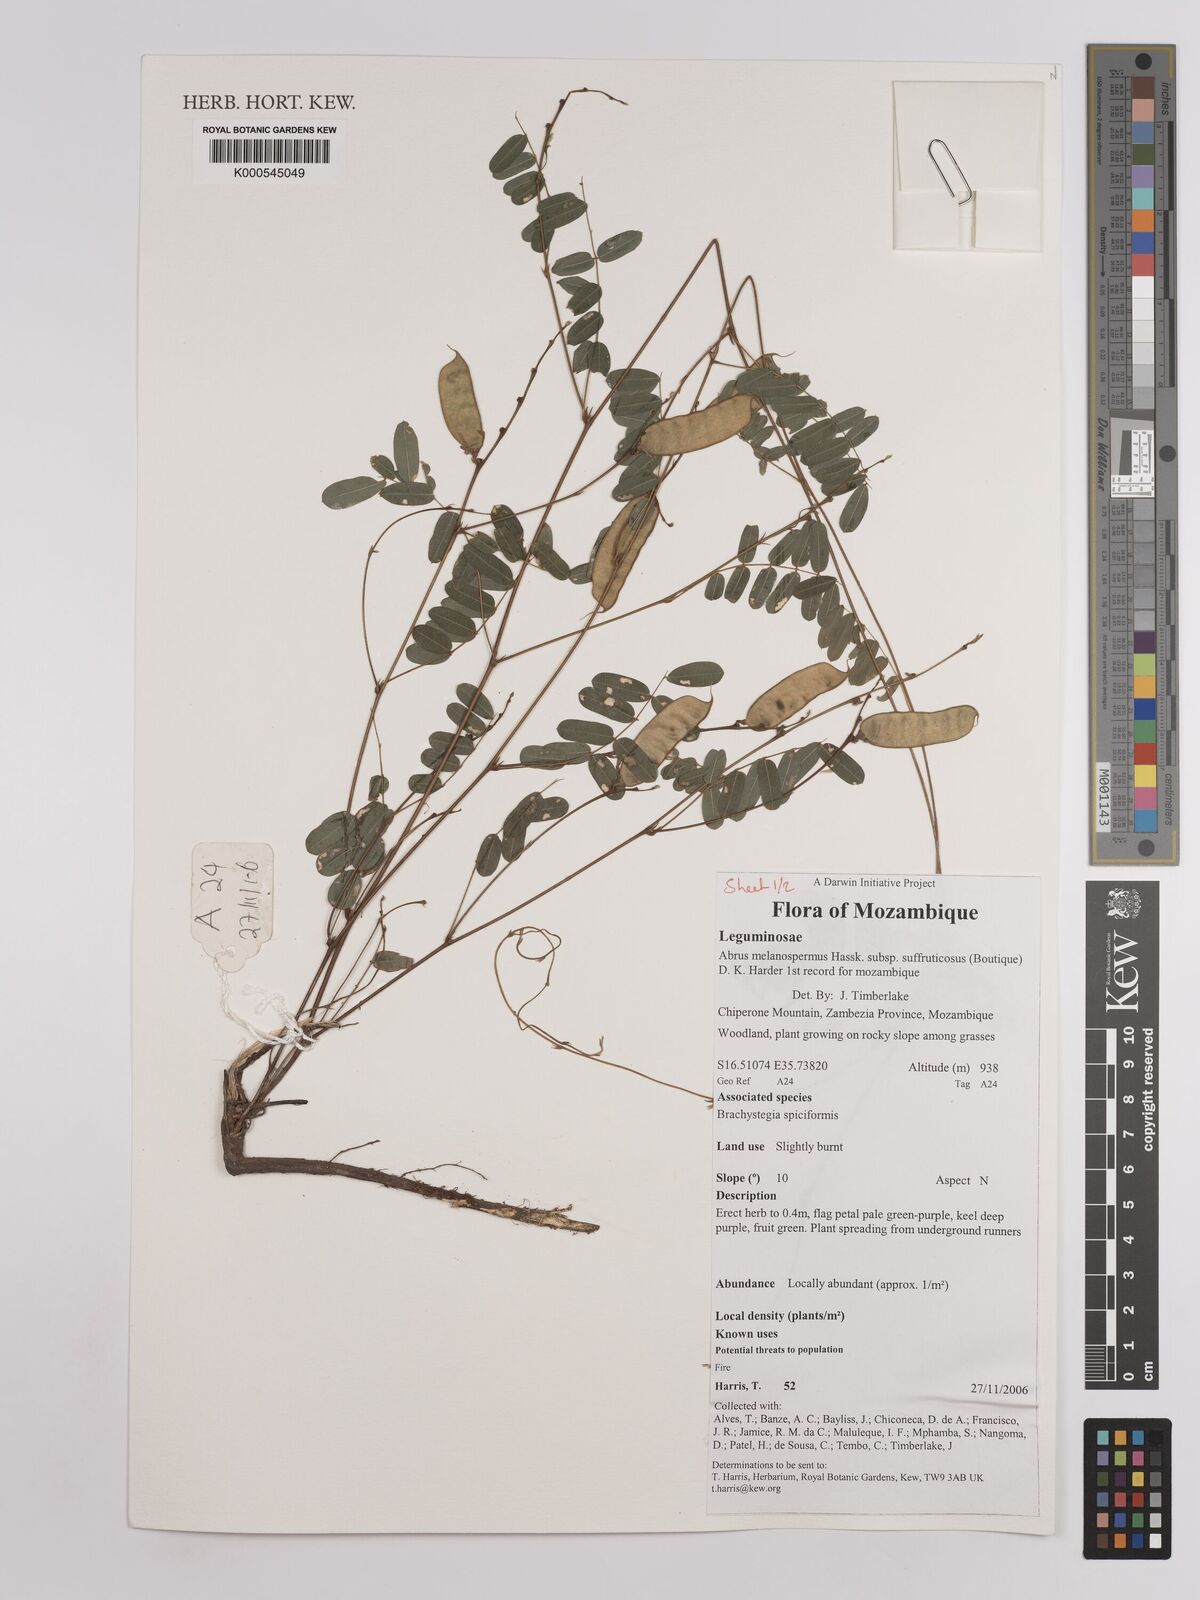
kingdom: Plantae
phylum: Tracheophyta
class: Magnoliopsida
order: Fabales
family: Fabaceae
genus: Abrus
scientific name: Abrus melanospermus
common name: Licorice-root
